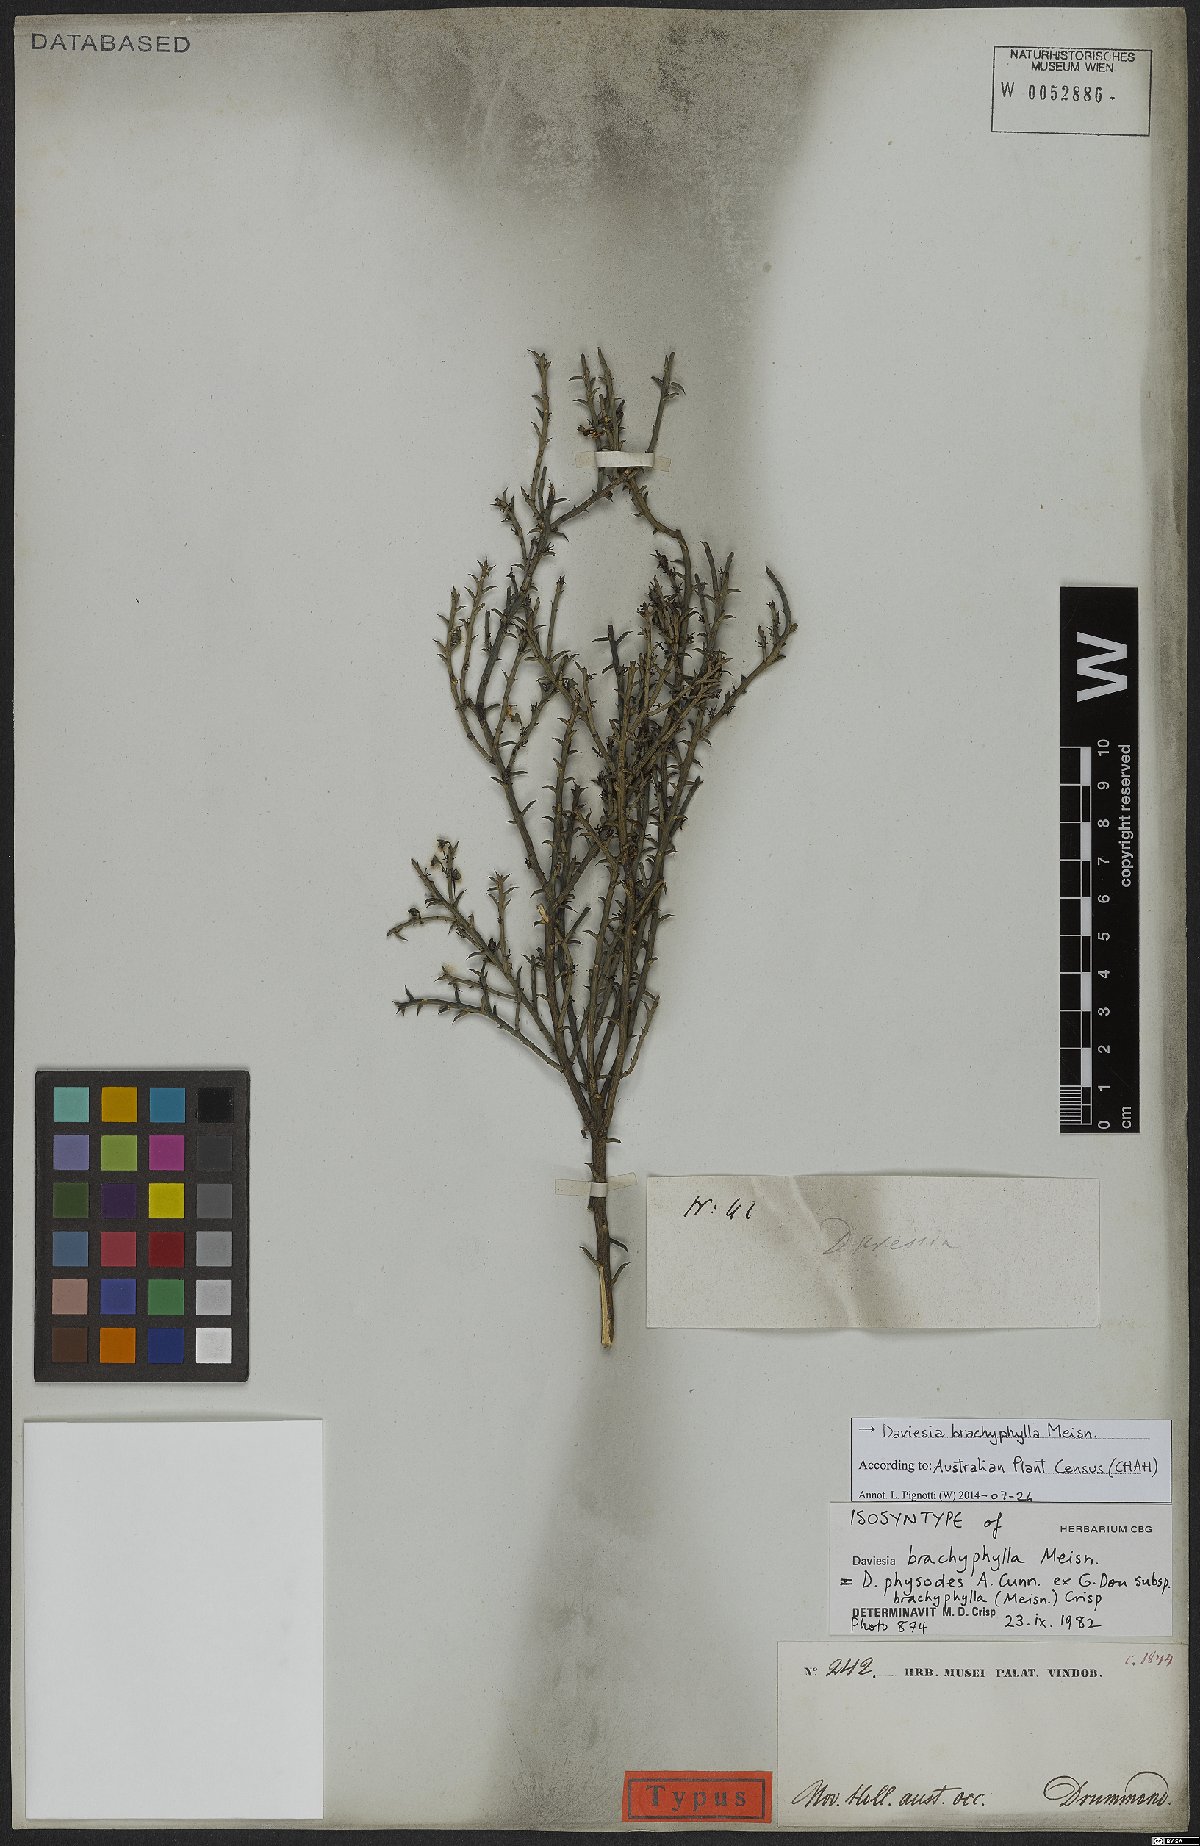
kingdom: Plantae
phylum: Tracheophyta
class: Magnoliopsida
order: Fabales
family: Fabaceae
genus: Daviesia
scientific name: Daviesia brachyphylla
